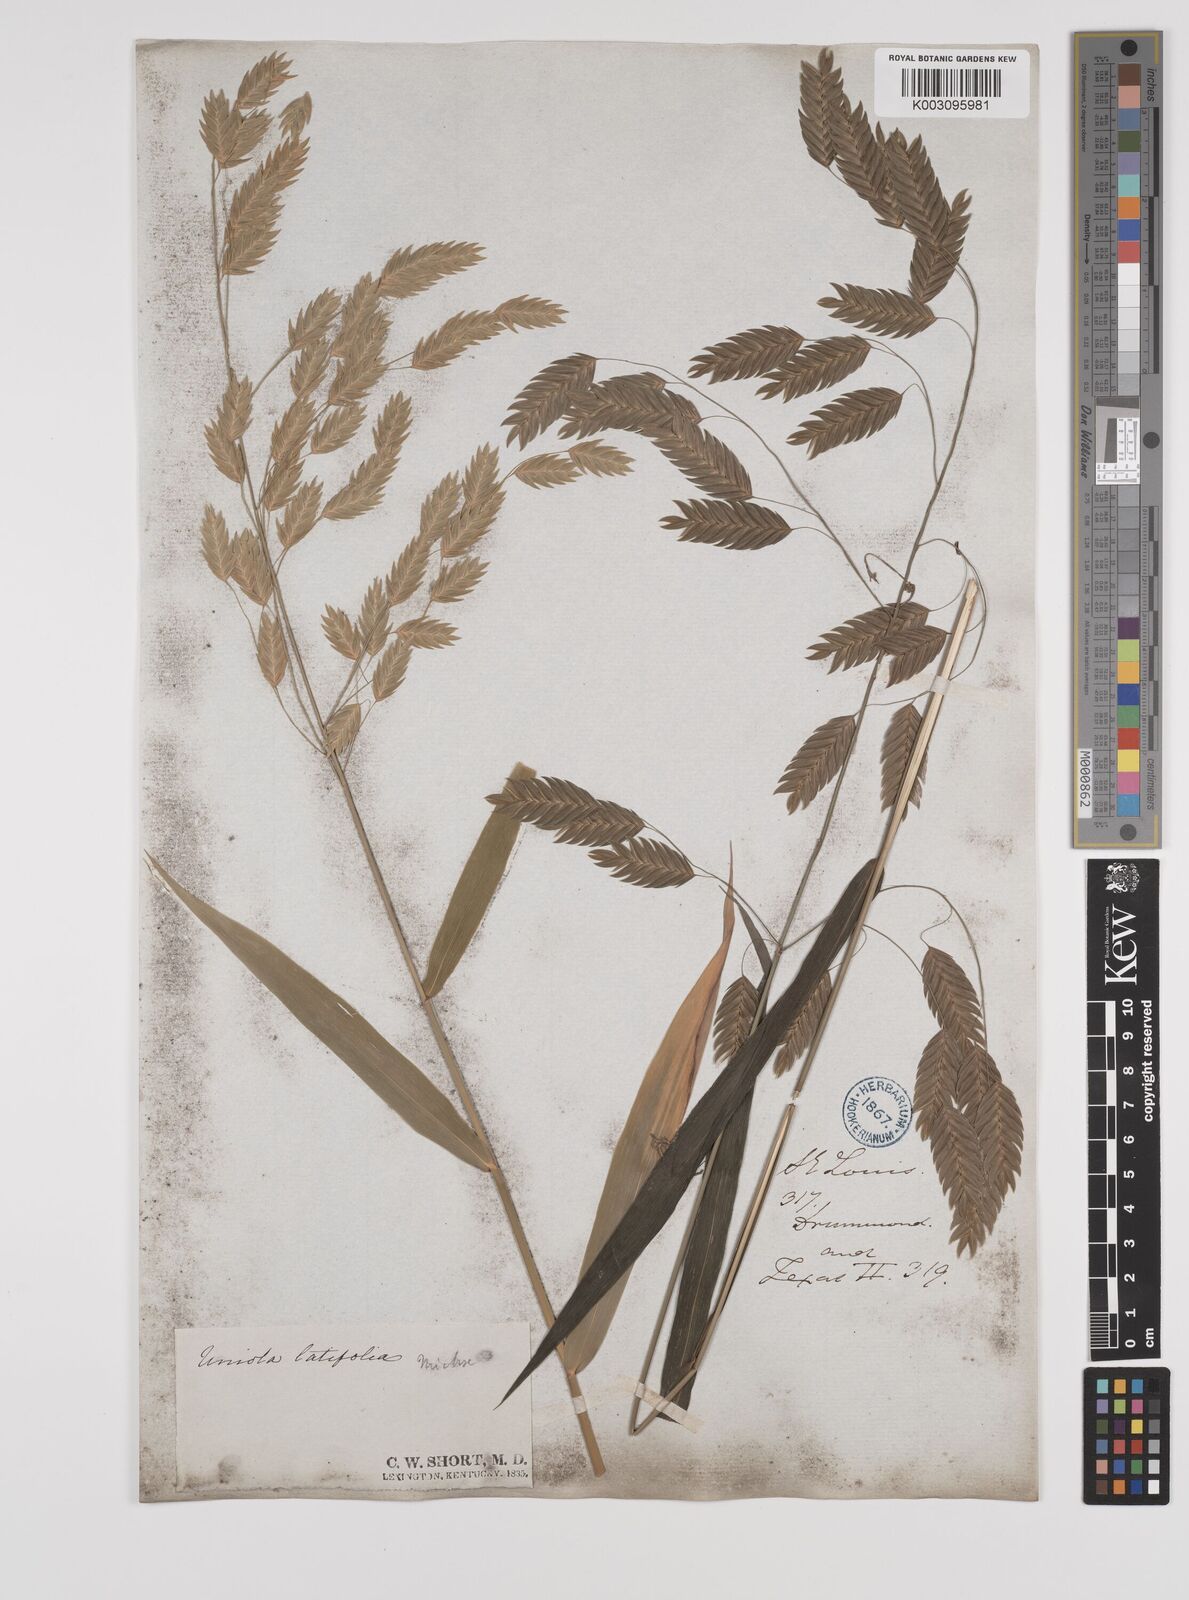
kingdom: Plantae
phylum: Tracheophyta
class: Liliopsida
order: Poales
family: Poaceae
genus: Chasmanthium
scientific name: Chasmanthium latifolium
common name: Broad-leaved chasmanthium
